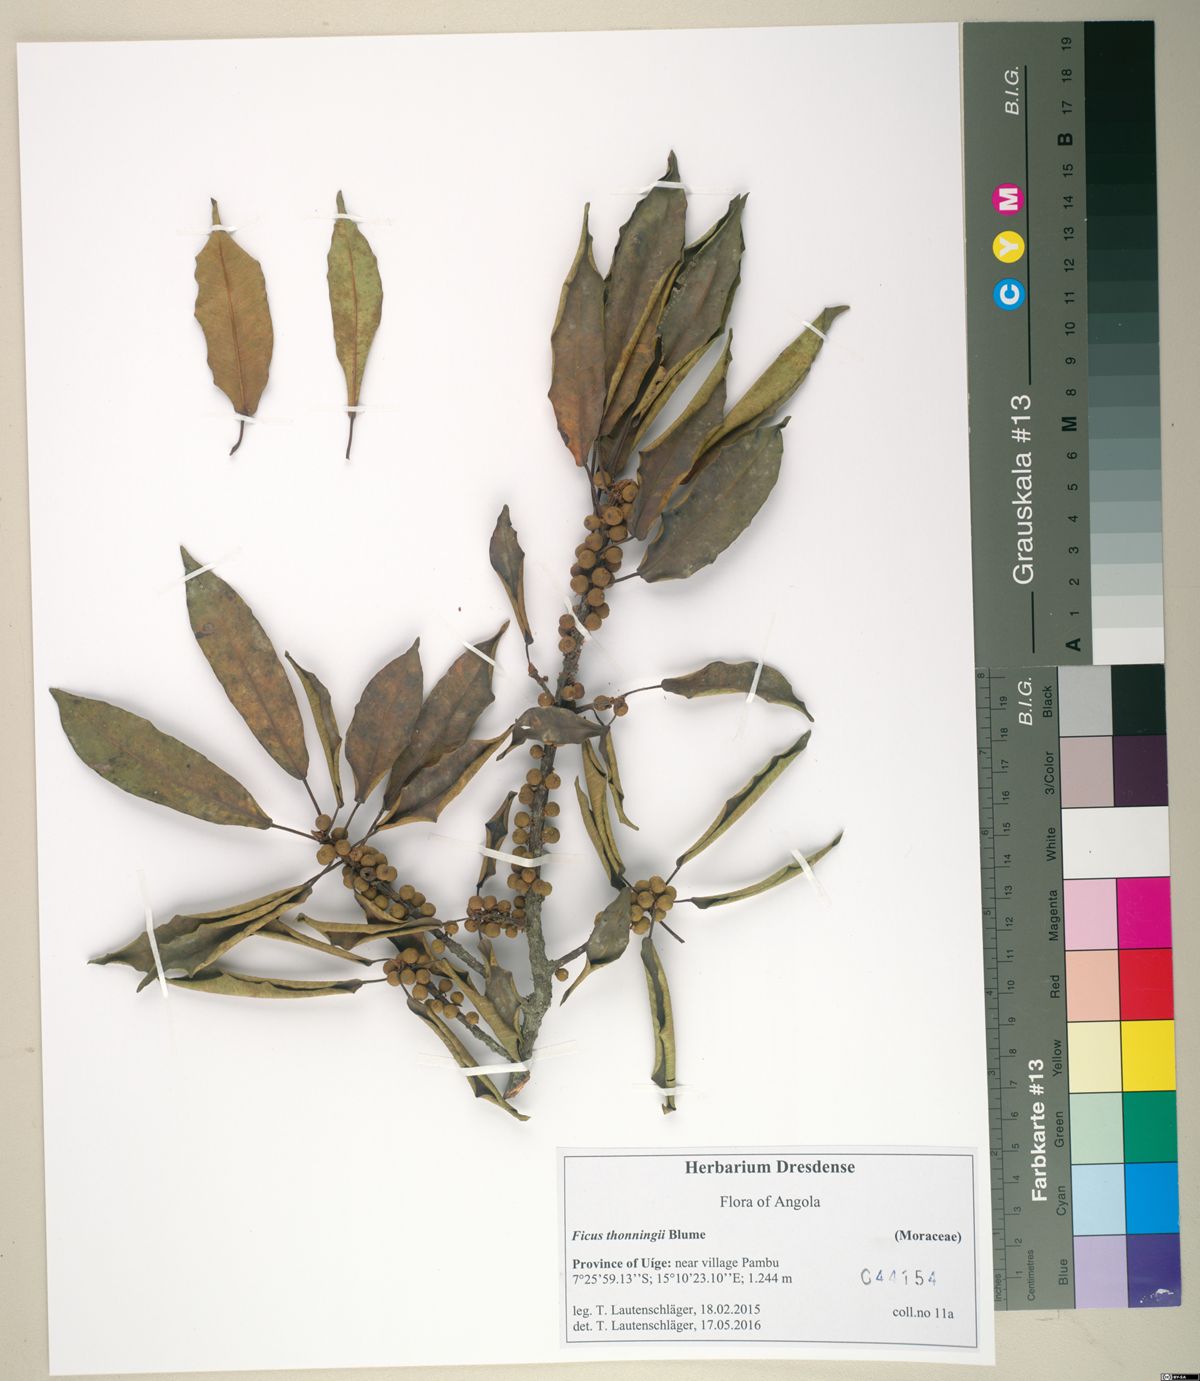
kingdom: Plantae
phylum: Tracheophyta
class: Magnoliopsida
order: Rosales
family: Moraceae
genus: Ficus
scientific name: Ficus thonningii
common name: Fig
